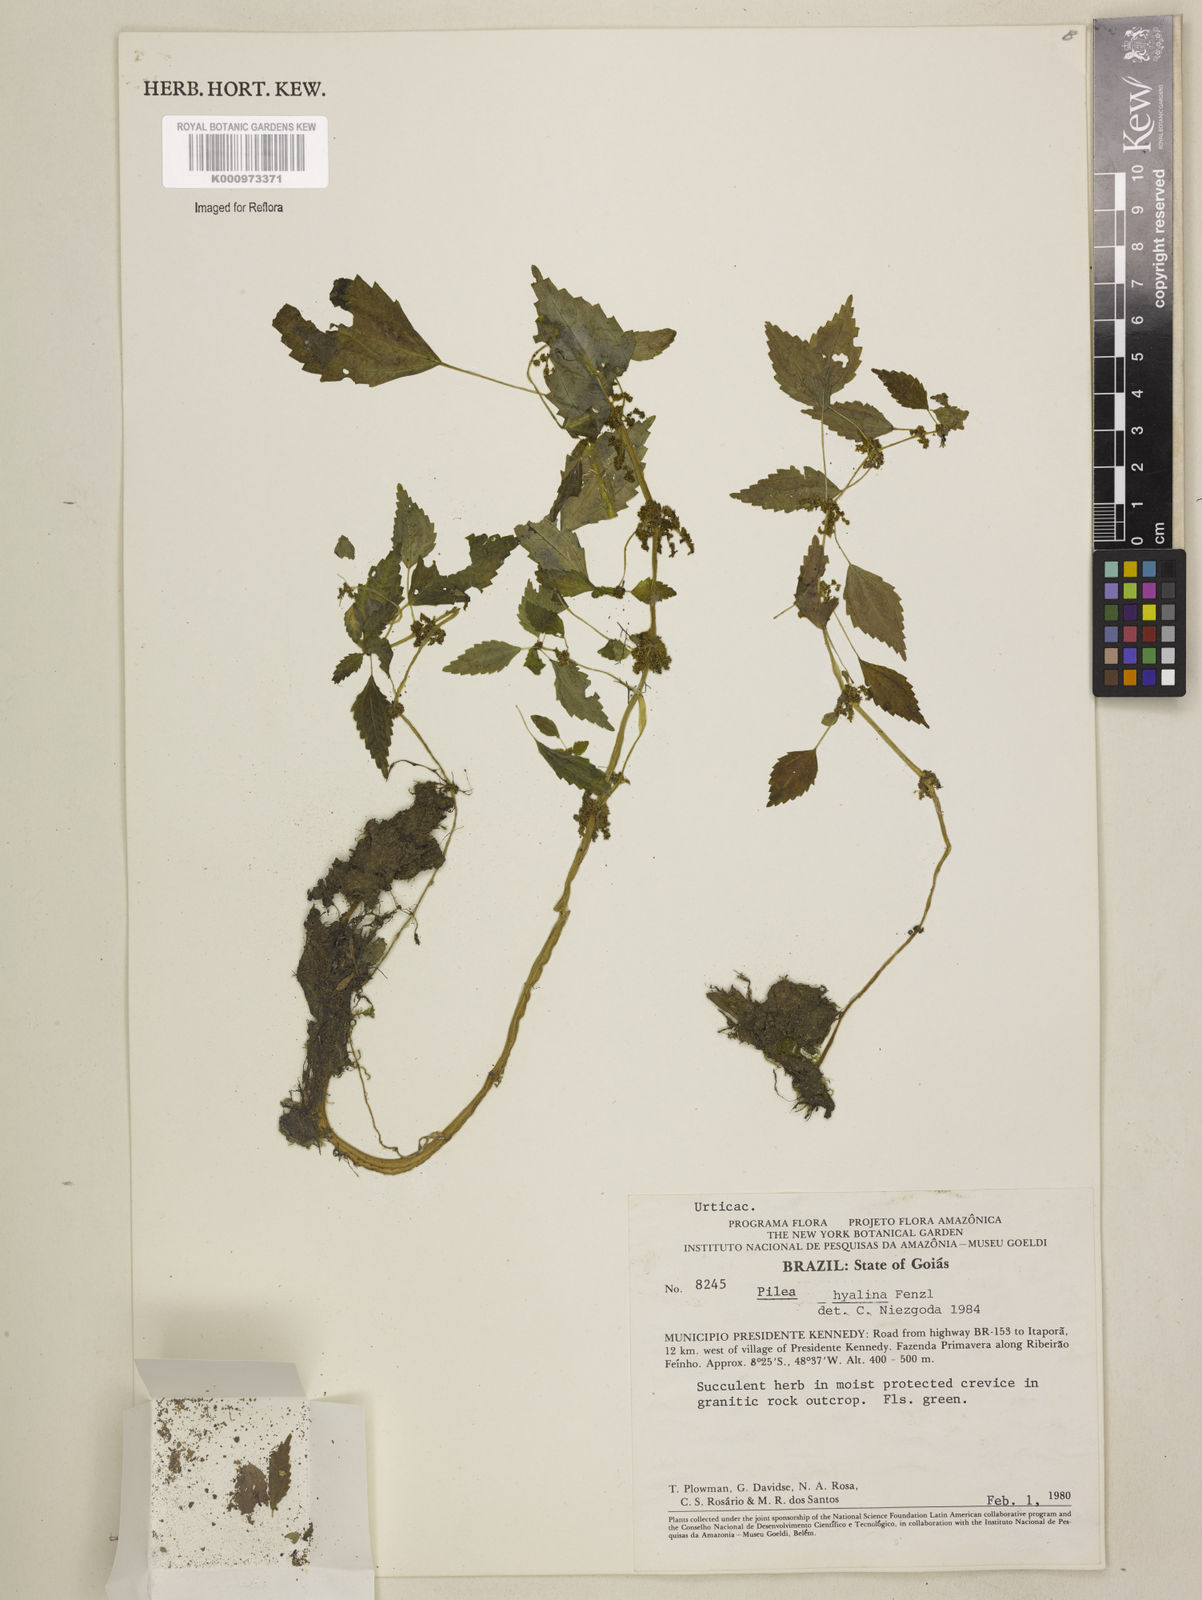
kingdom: Plantae
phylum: Tracheophyta
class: Magnoliopsida
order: Rosales
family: Urticaceae
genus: Pilea
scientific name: Pilea hyalina
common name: Virdrillo
